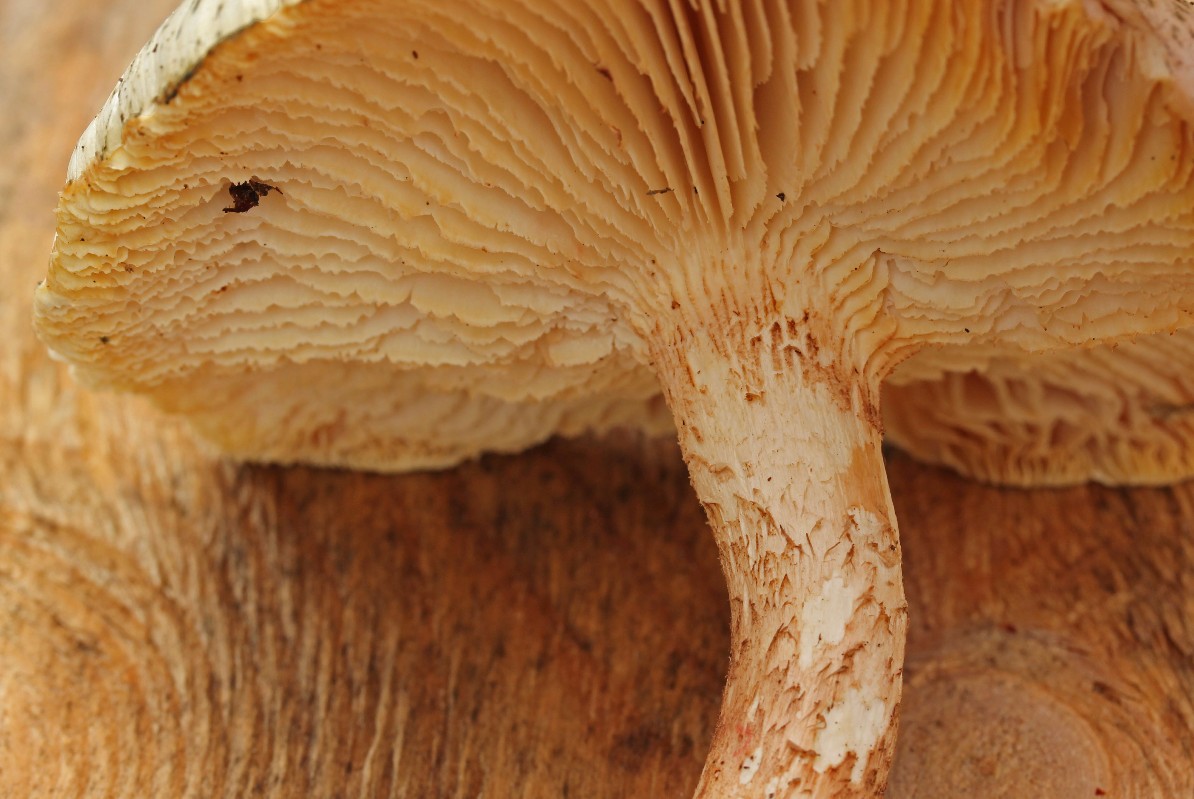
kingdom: Fungi
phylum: Basidiomycota
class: Agaricomycetes
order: Gloeophyllales
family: Gloeophyllaceae
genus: Neolentinus
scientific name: Neolentinus lepideus
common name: skællet sejhat
